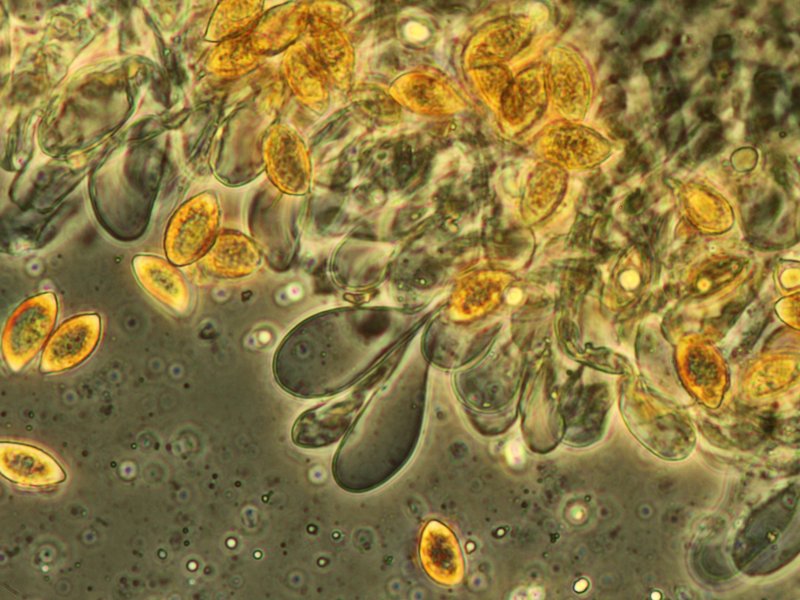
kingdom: Fungi
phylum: Basidiomycota
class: Agaricomycetes
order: Agaricales
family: Hymenogastraceae
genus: Naucoria
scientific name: Naucoria salicis
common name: pile-knaphat
